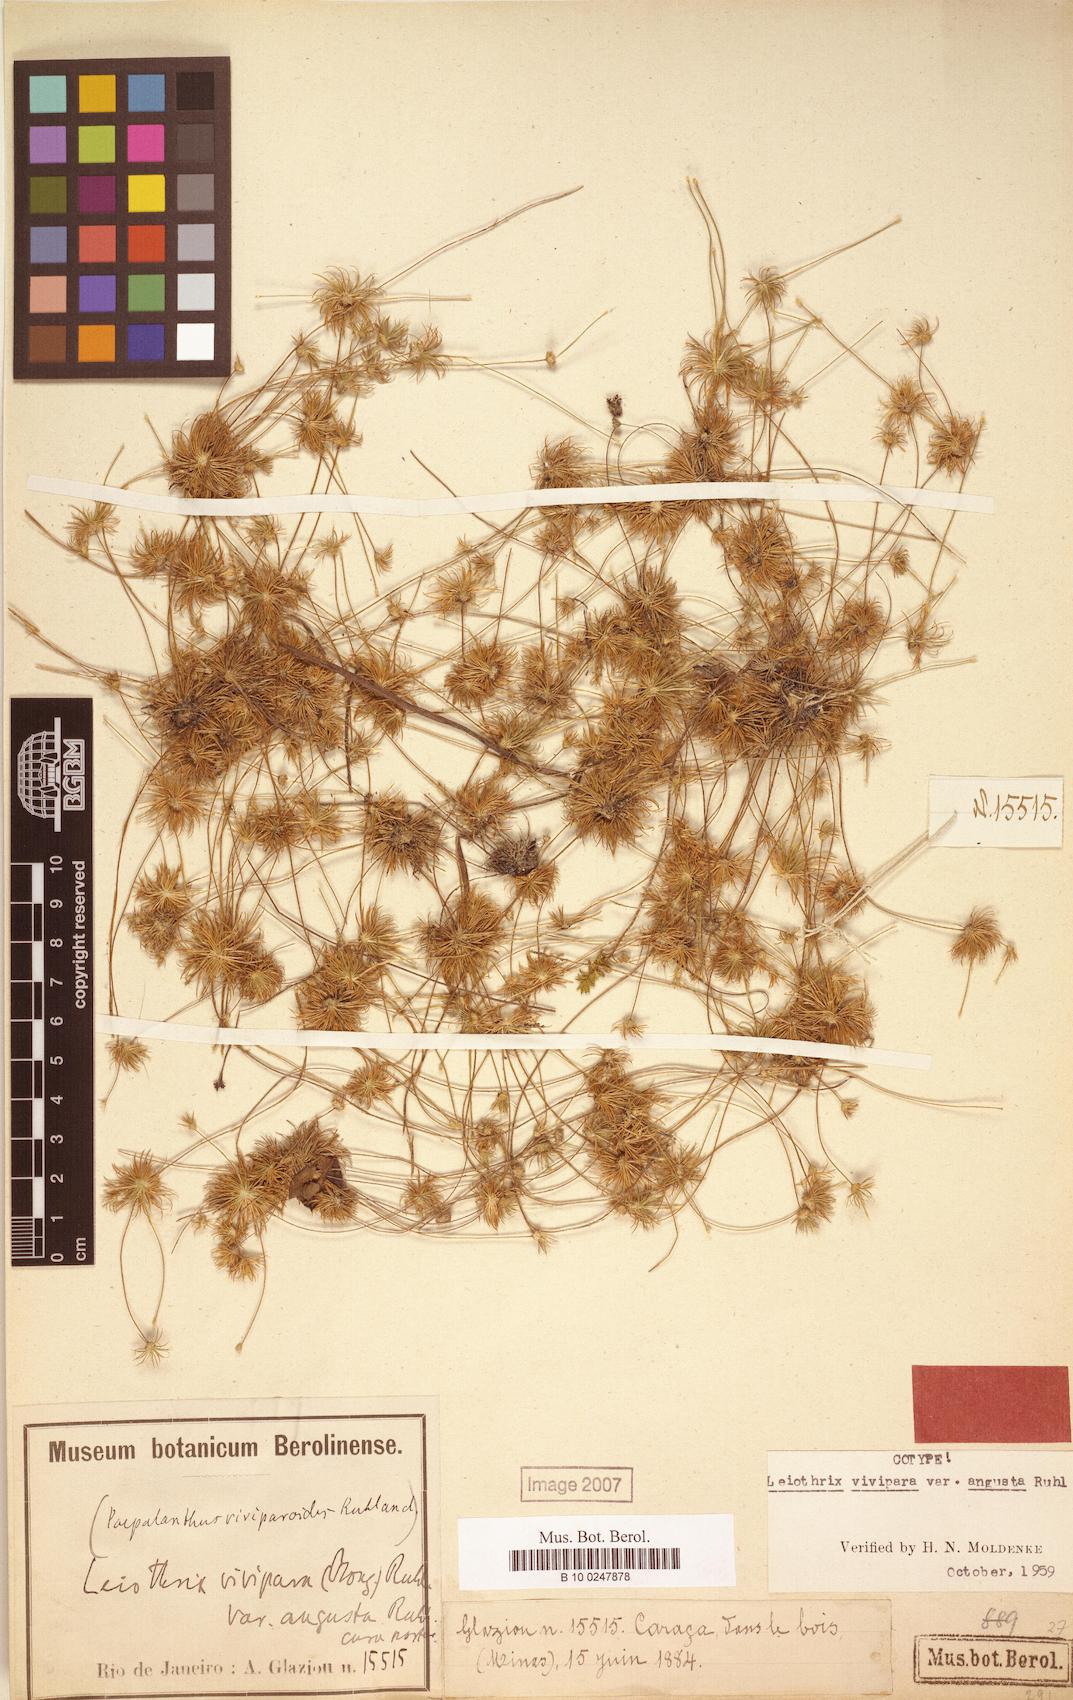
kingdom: Plantae
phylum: Tracheophyta
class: Liliopsida
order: Poales
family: Eriocaulaceae
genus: Leiothrix
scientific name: Leiothrix vivipara
